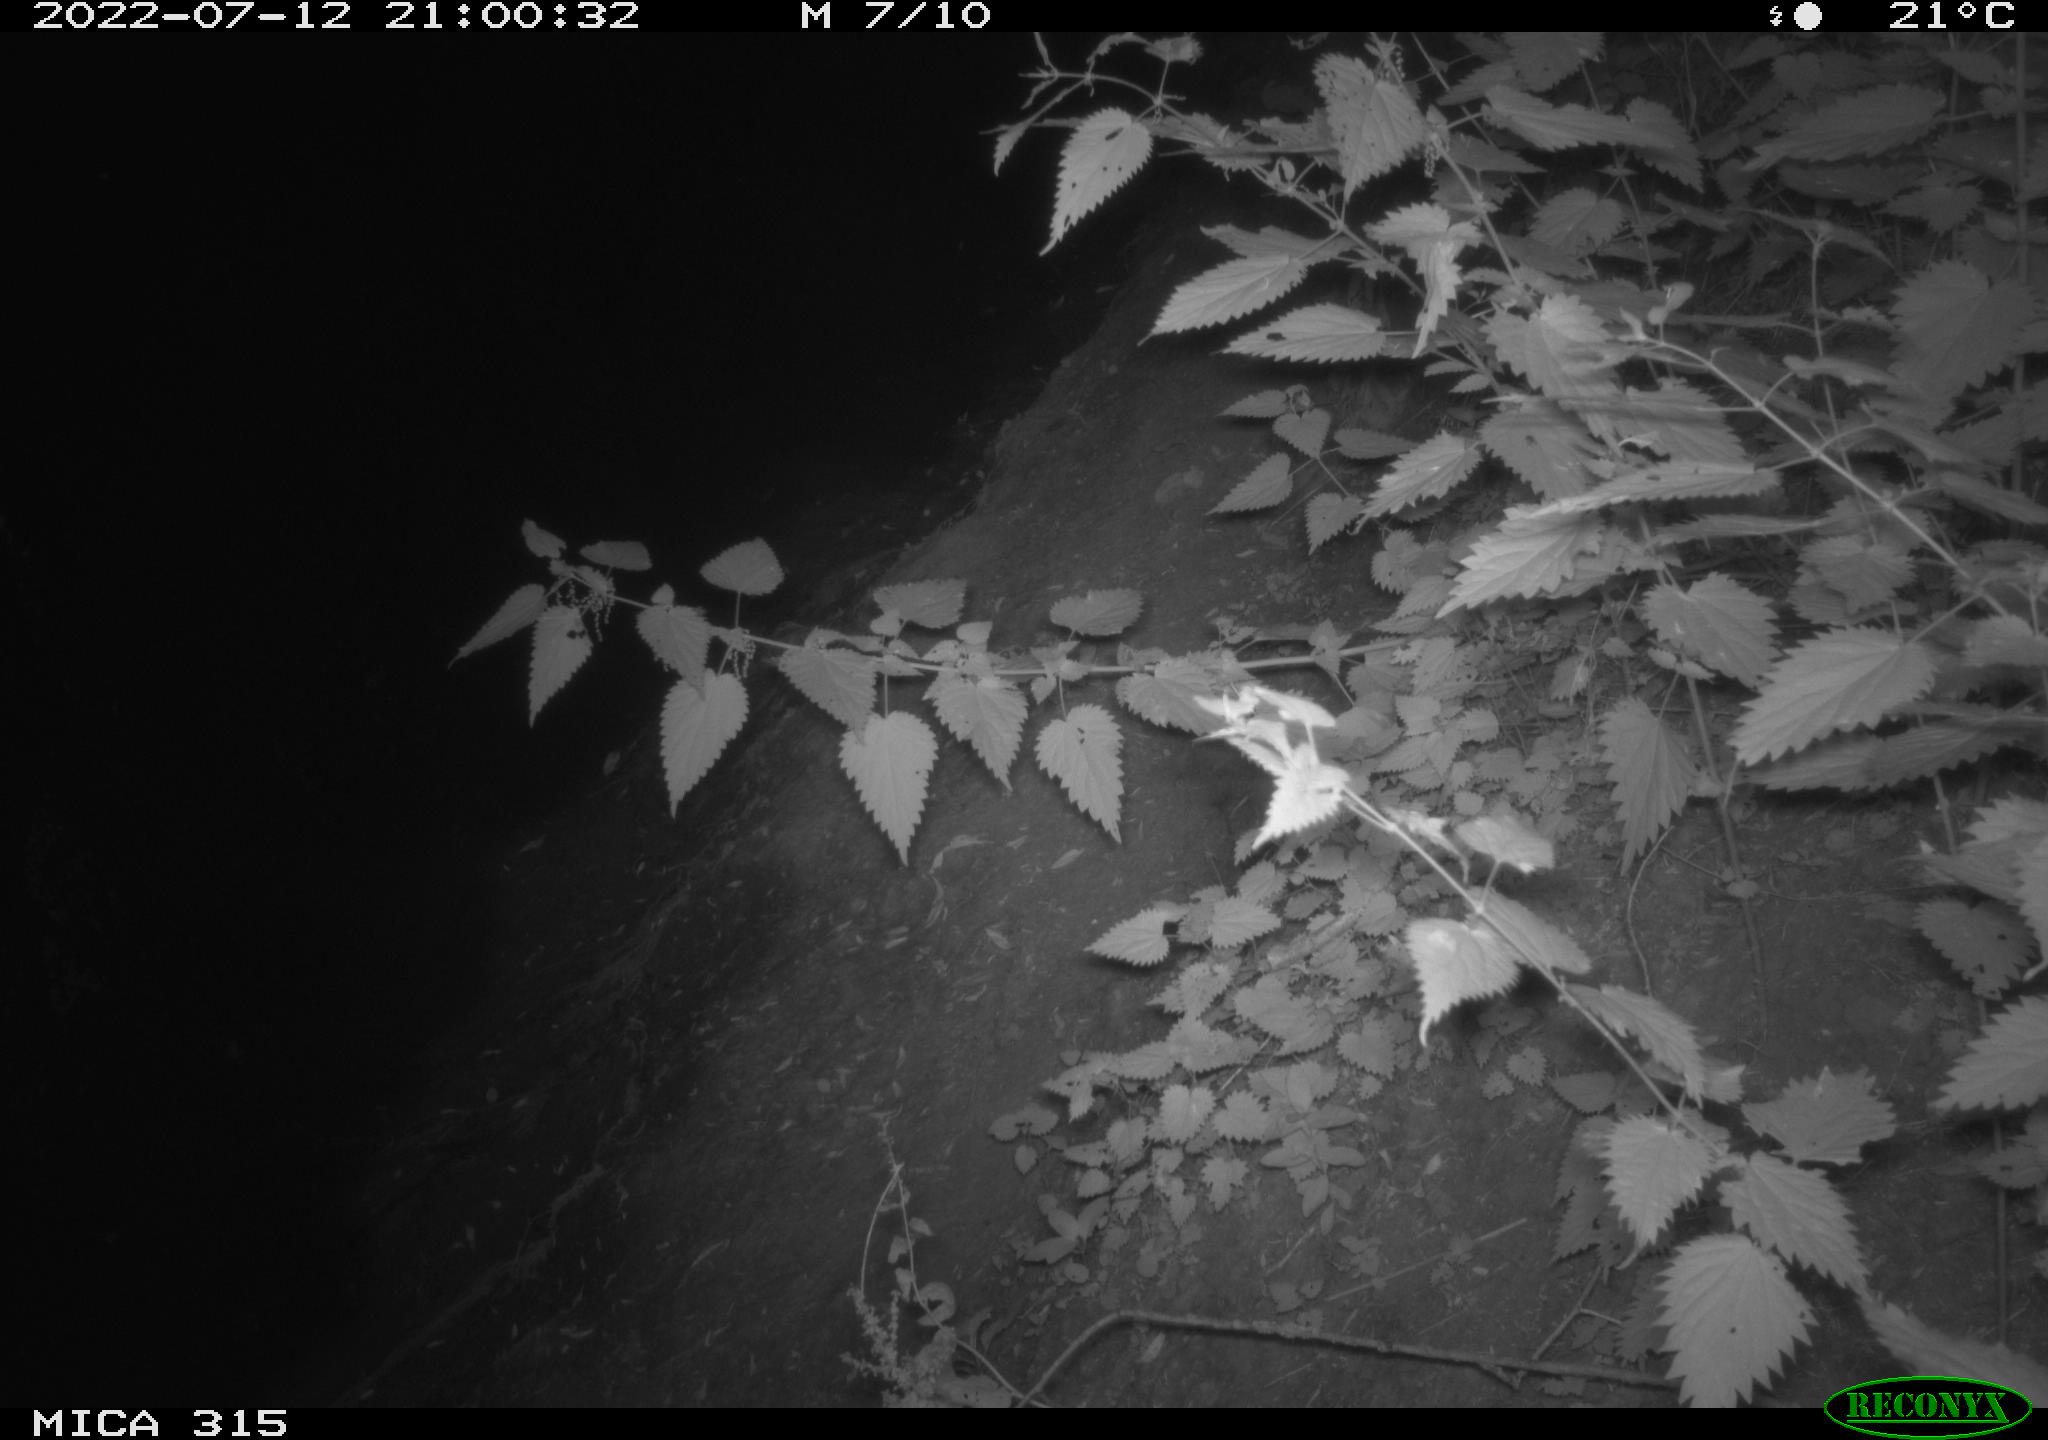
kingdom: Animalia
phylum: Chordata
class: Mammalia
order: Carnivora
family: Canidae
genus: Vulpes
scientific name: Vulpes vulpes
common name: Red fox
